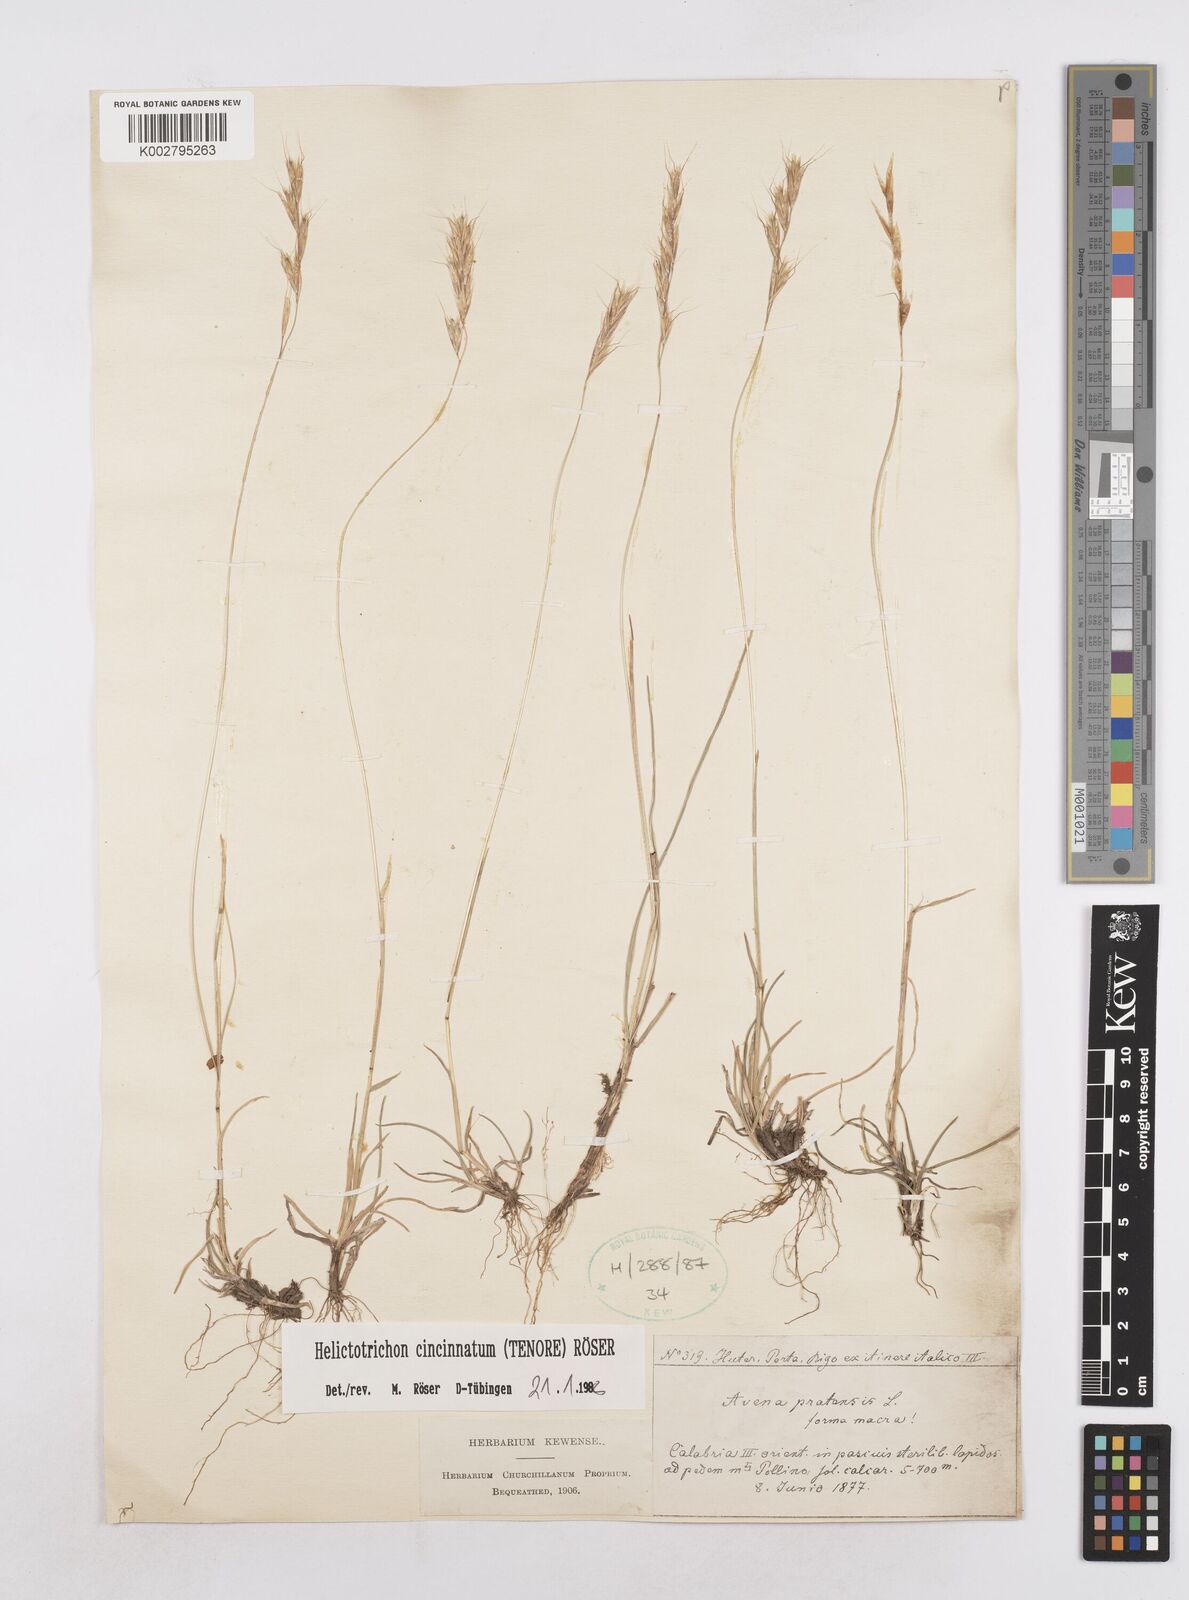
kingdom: Plantae
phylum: Tracheophyta
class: Liliopsida
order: Poales
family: Poaceae
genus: Helictochloa
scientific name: Helictochloa cincinnata
